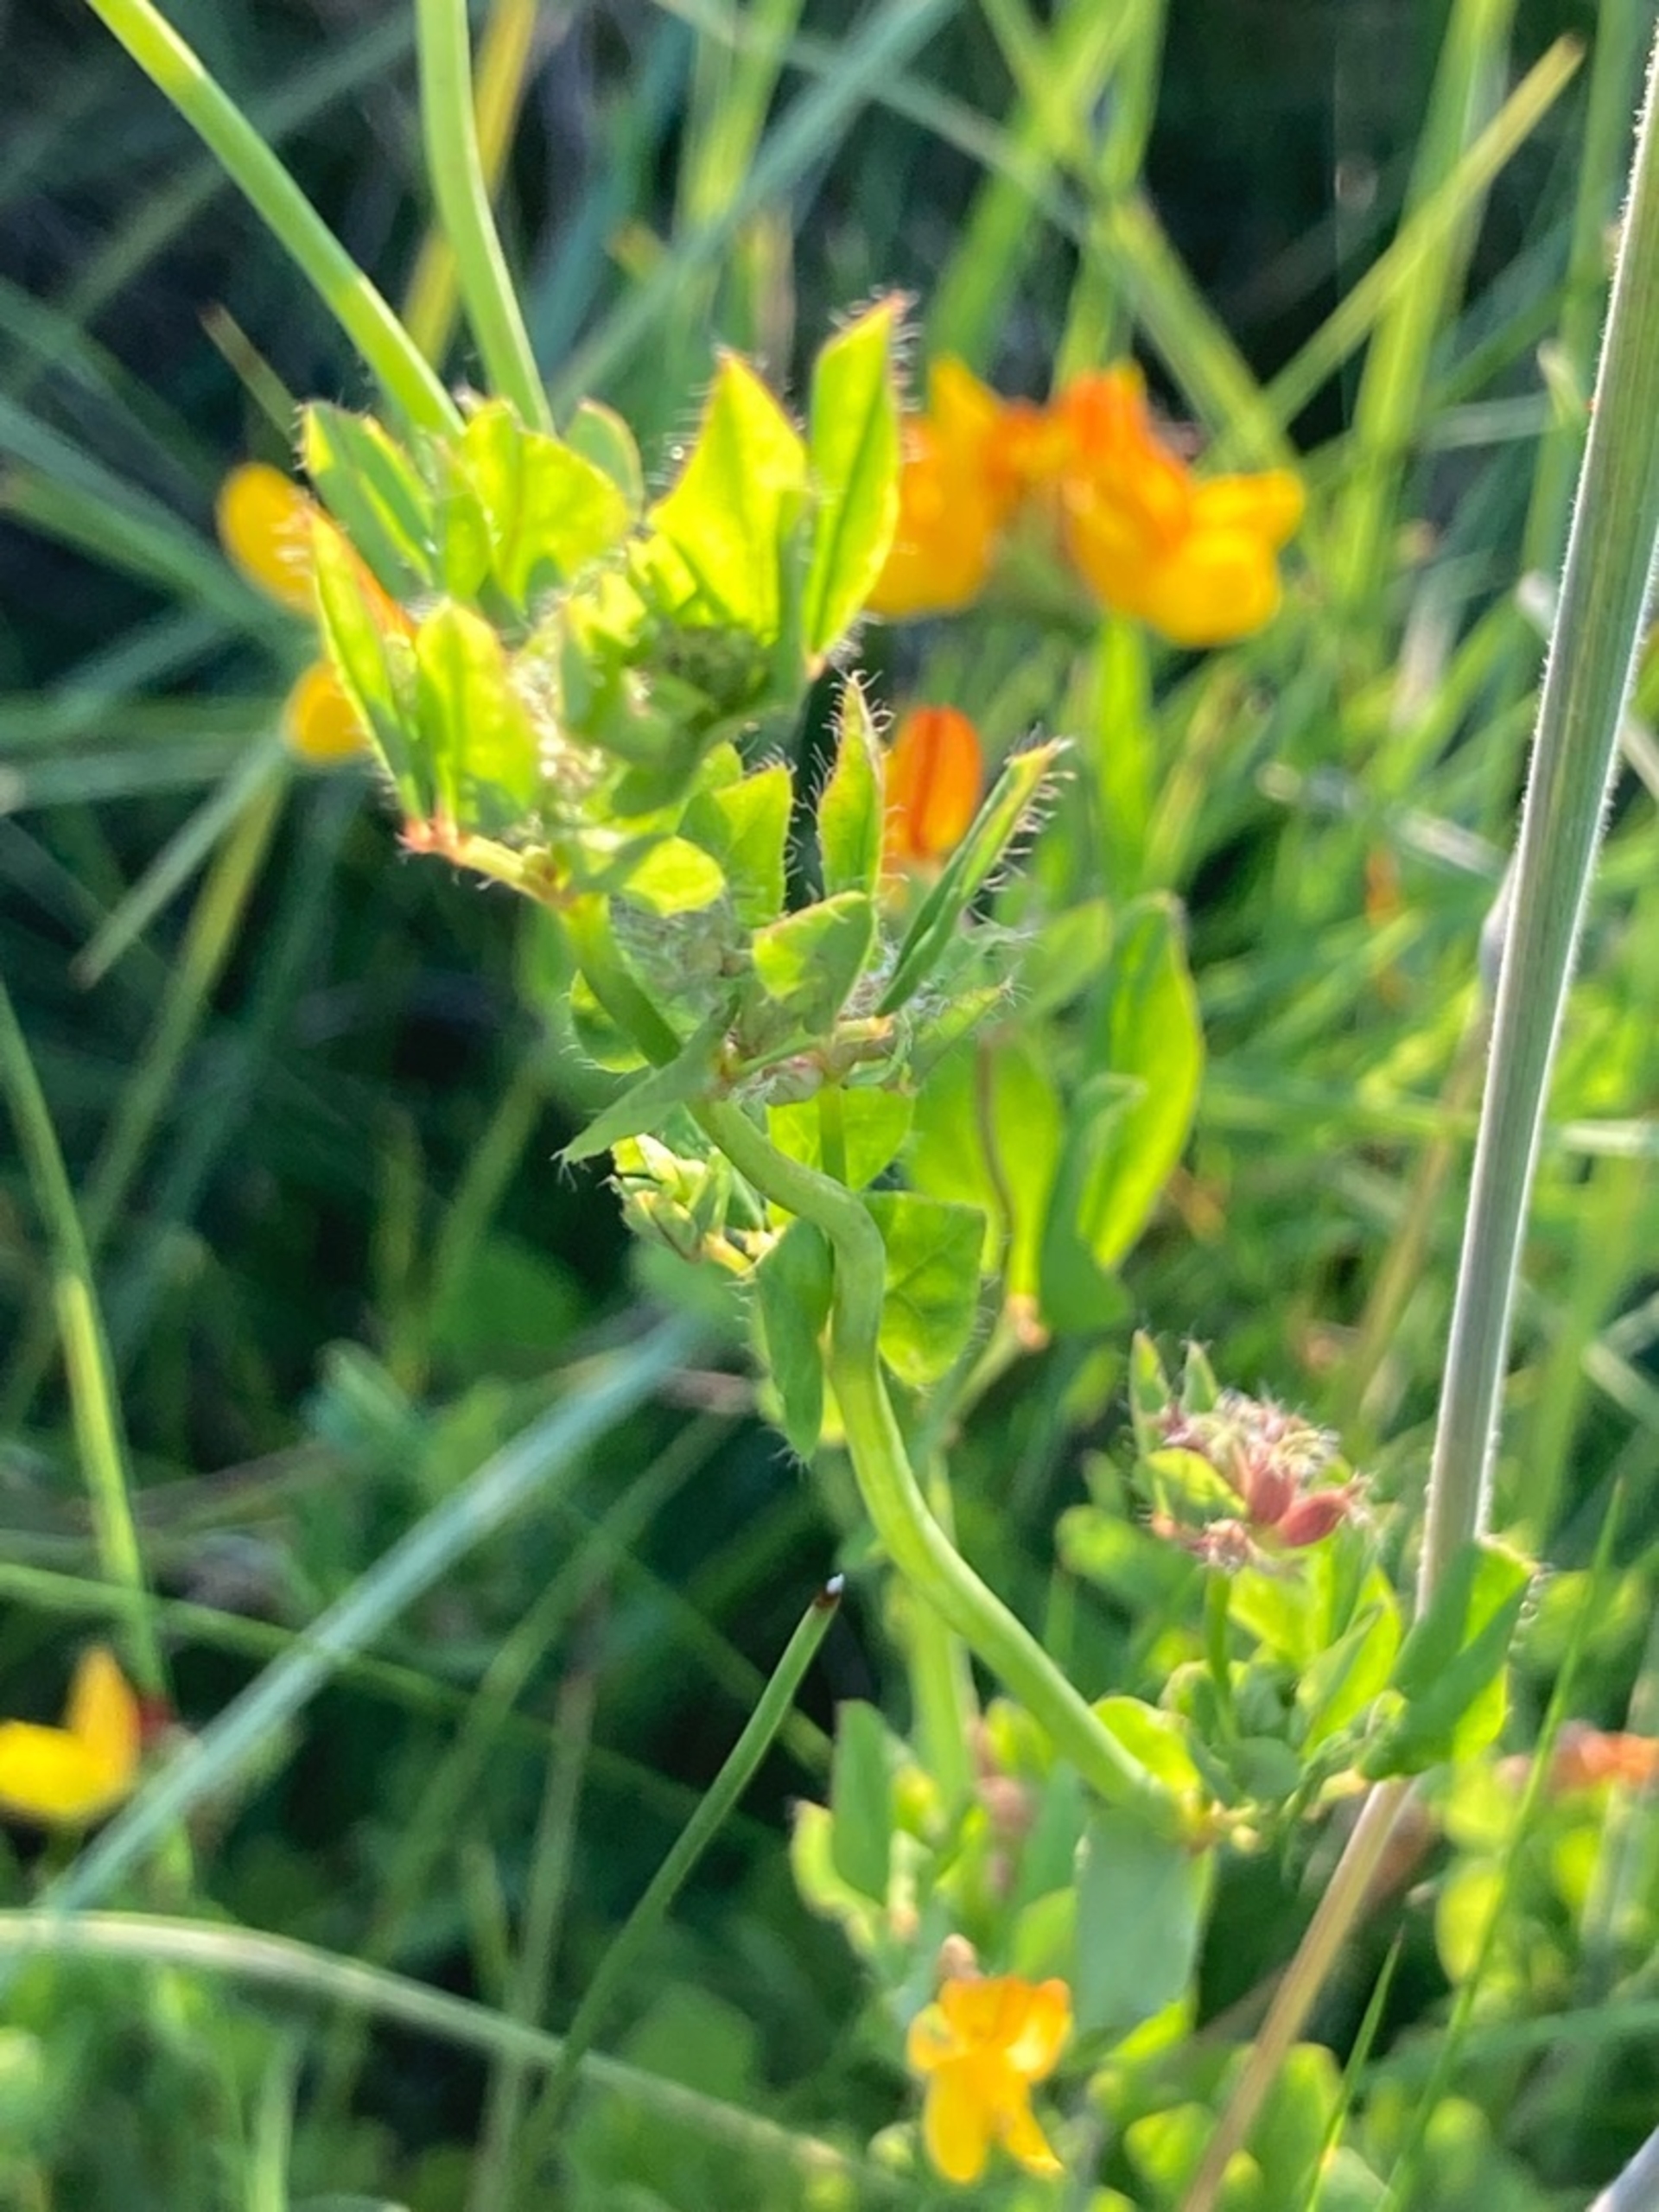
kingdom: Plantae
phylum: Tracheophyta
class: Magnoliopsida
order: Fabales
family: Fabaceae
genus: Lotus
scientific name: Lotus pedunculatus
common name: Sump-kællingetand (varietet)
